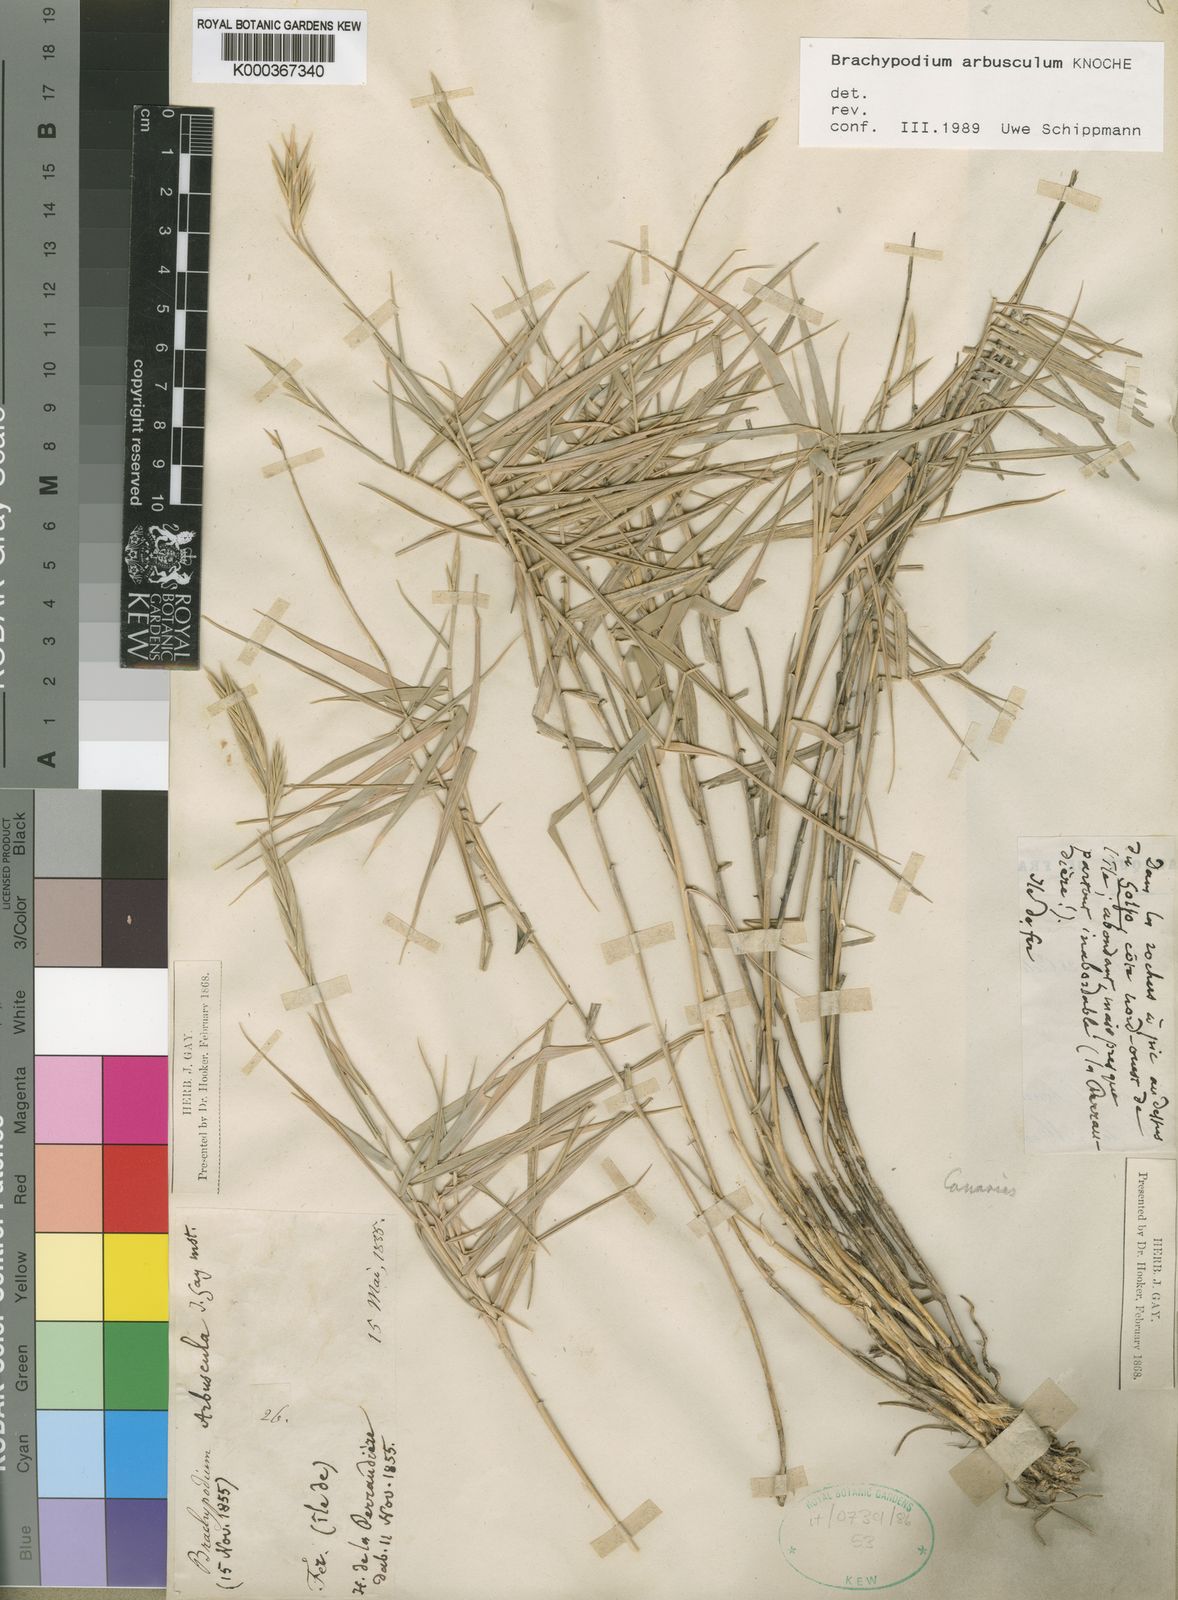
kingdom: Plantae
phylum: Tracheophyta
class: Liliopsida
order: Poales
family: Poaceae
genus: Brachypodium
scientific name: Brachypodium
